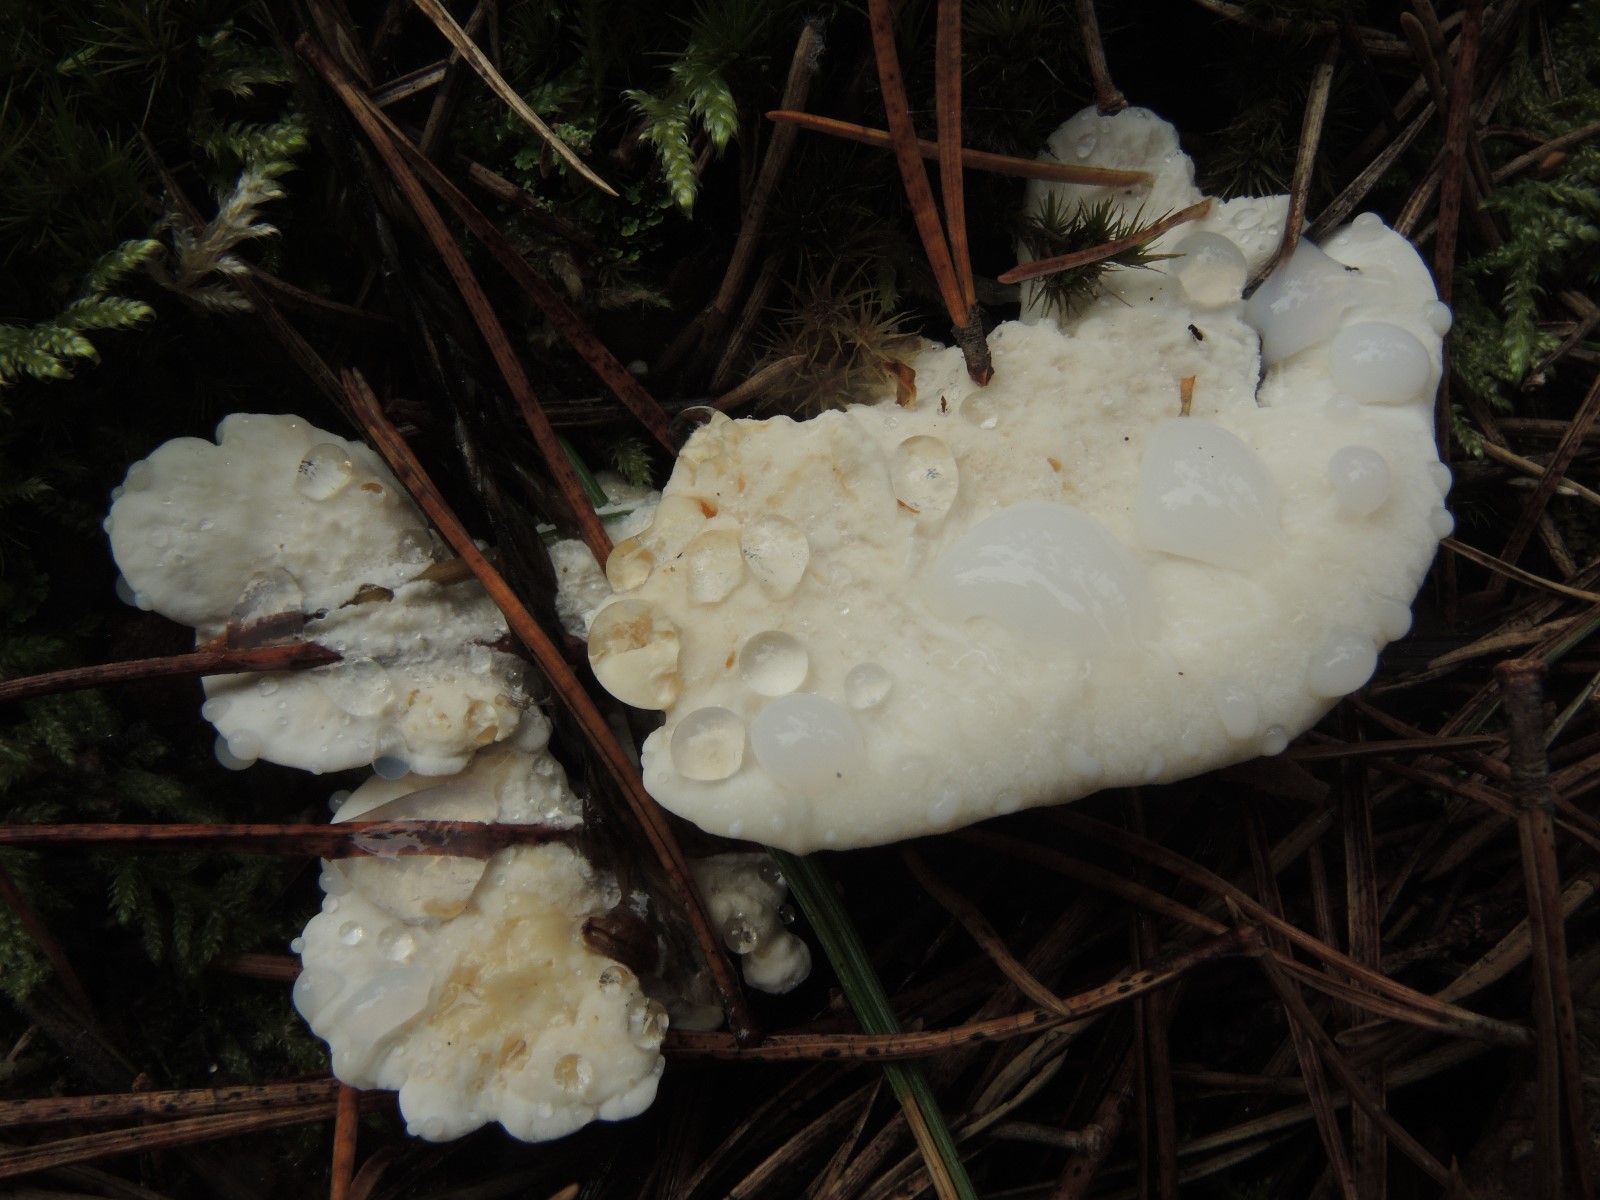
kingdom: Fungi
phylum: Basidiomycota
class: Agaricomycetes
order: Polyporales
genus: Amaropostia
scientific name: Amaropostia stiptica
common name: bitter kødporesvamp
